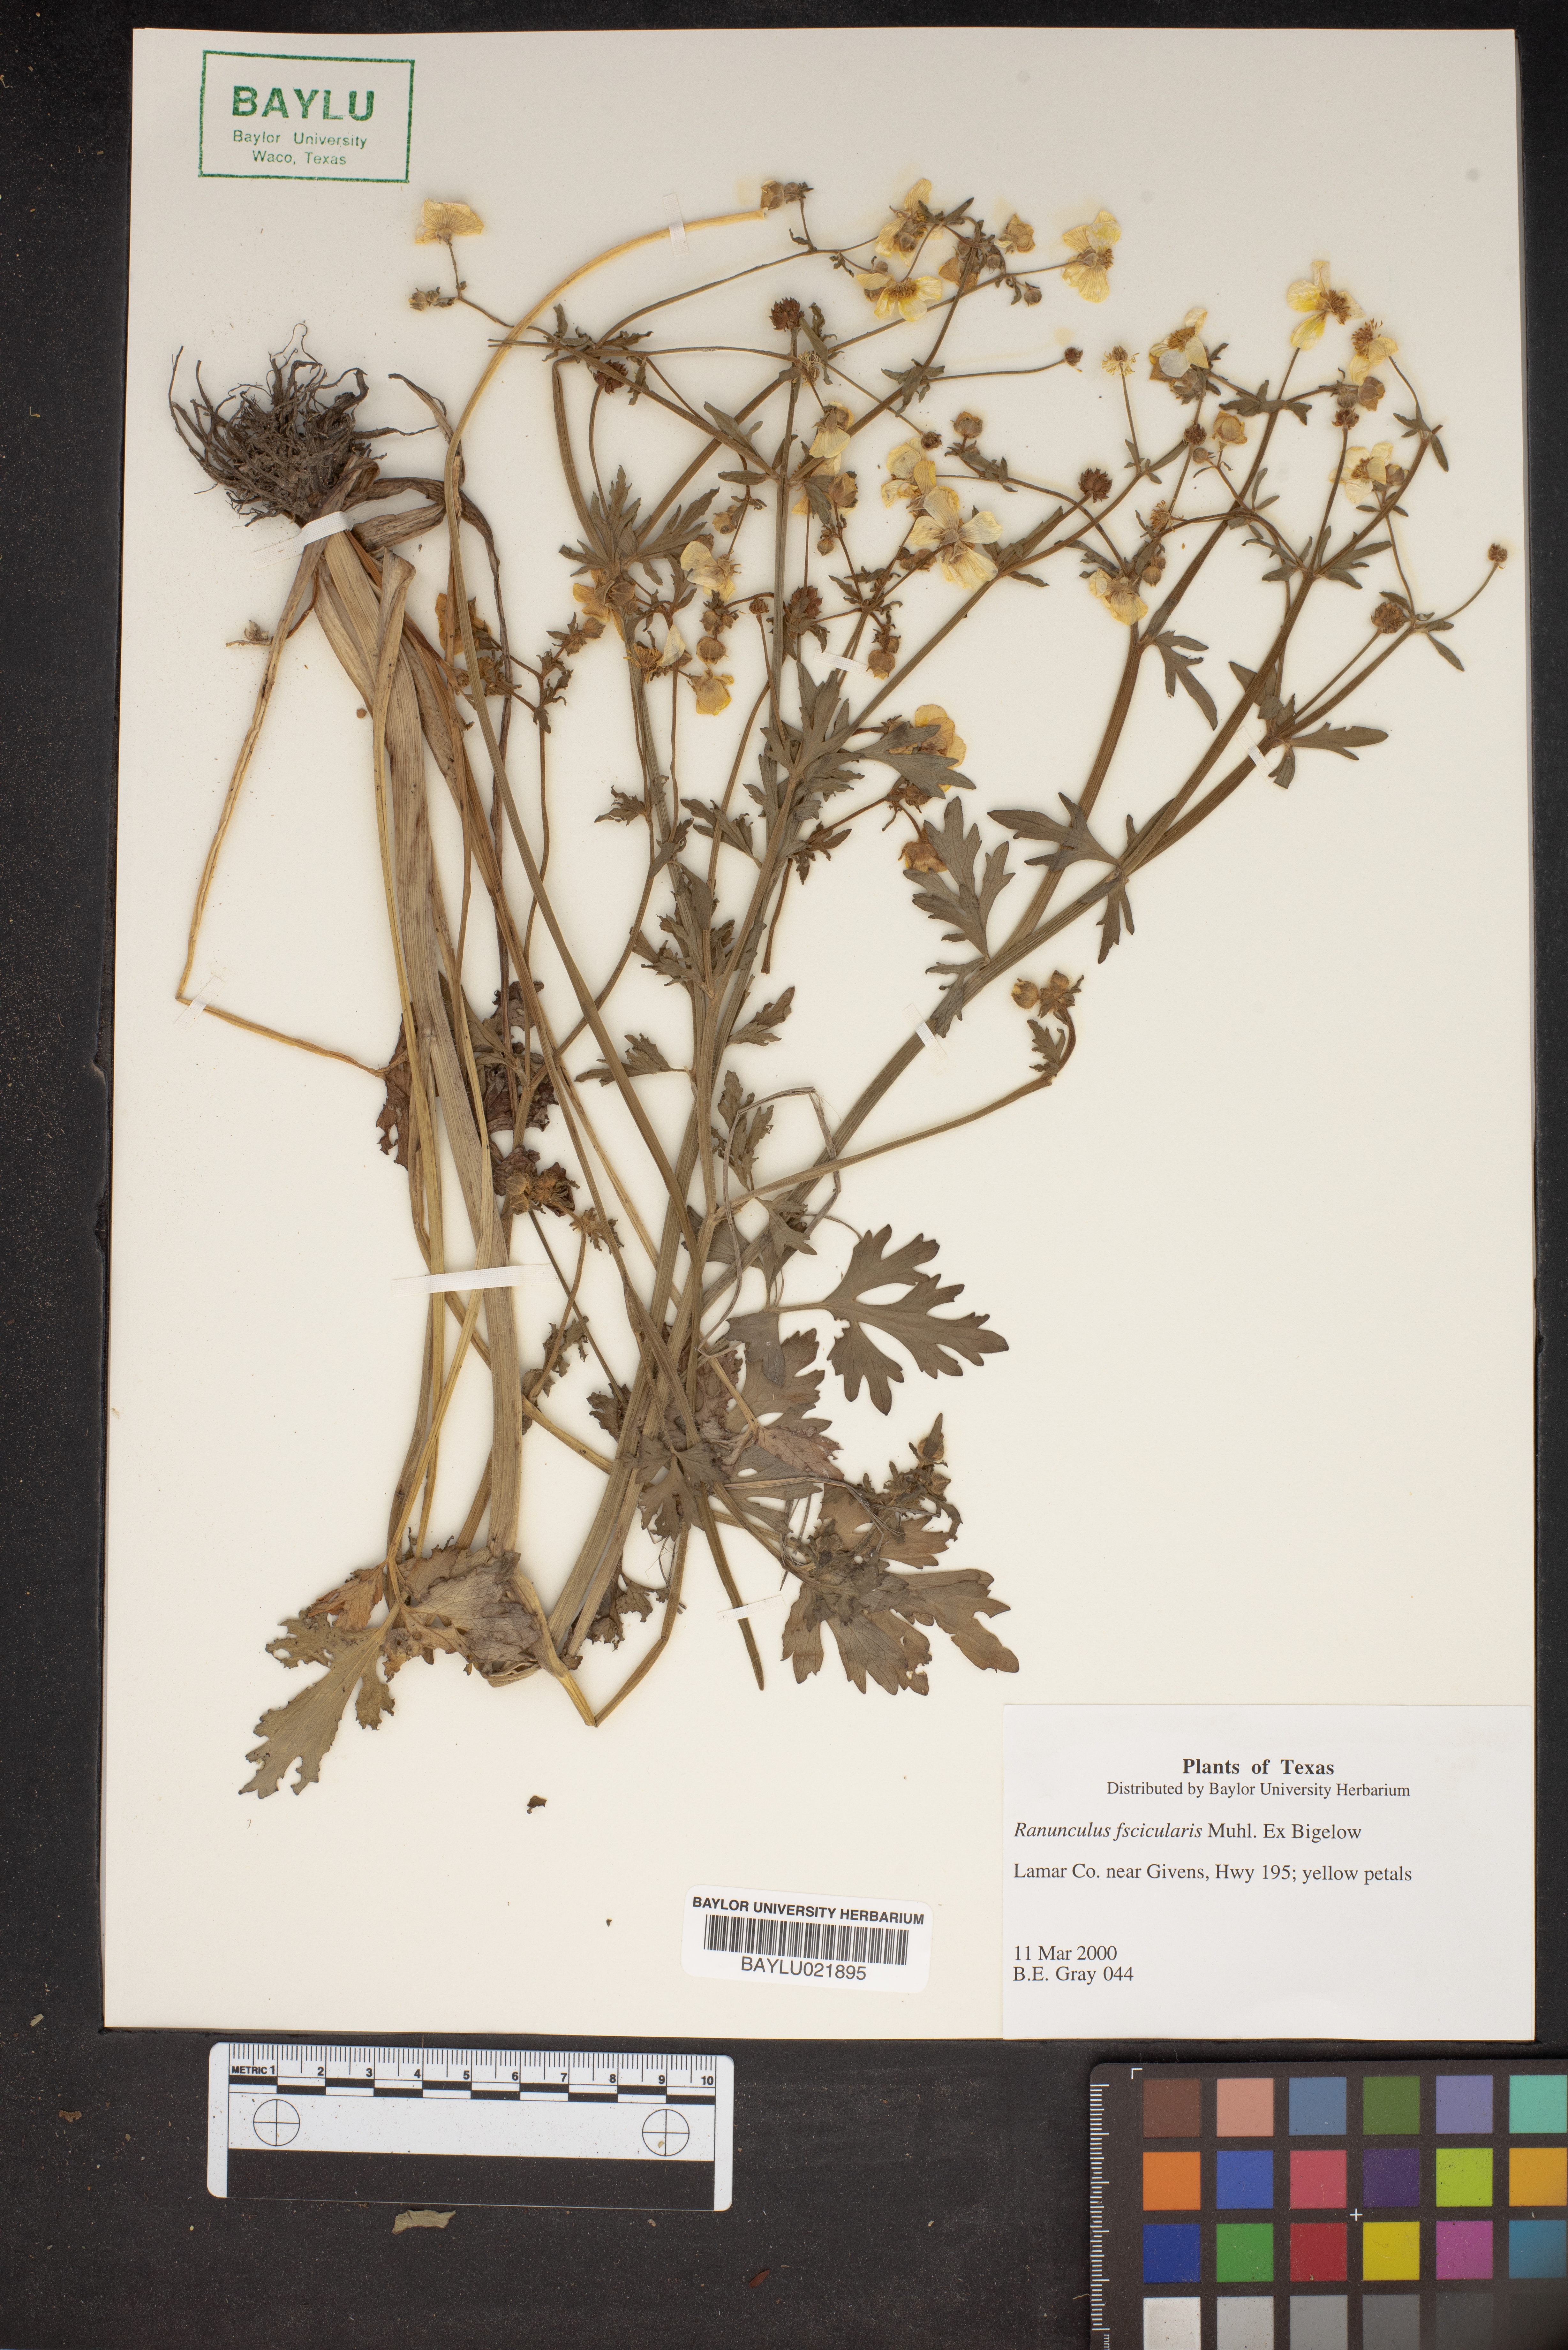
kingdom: Plantae
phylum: Tracheophyta
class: Magnoliopsida
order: Ranunculales
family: Ranunculaceae
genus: Ranunculus
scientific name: Ranunculus fascicularis
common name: Early buttercup
